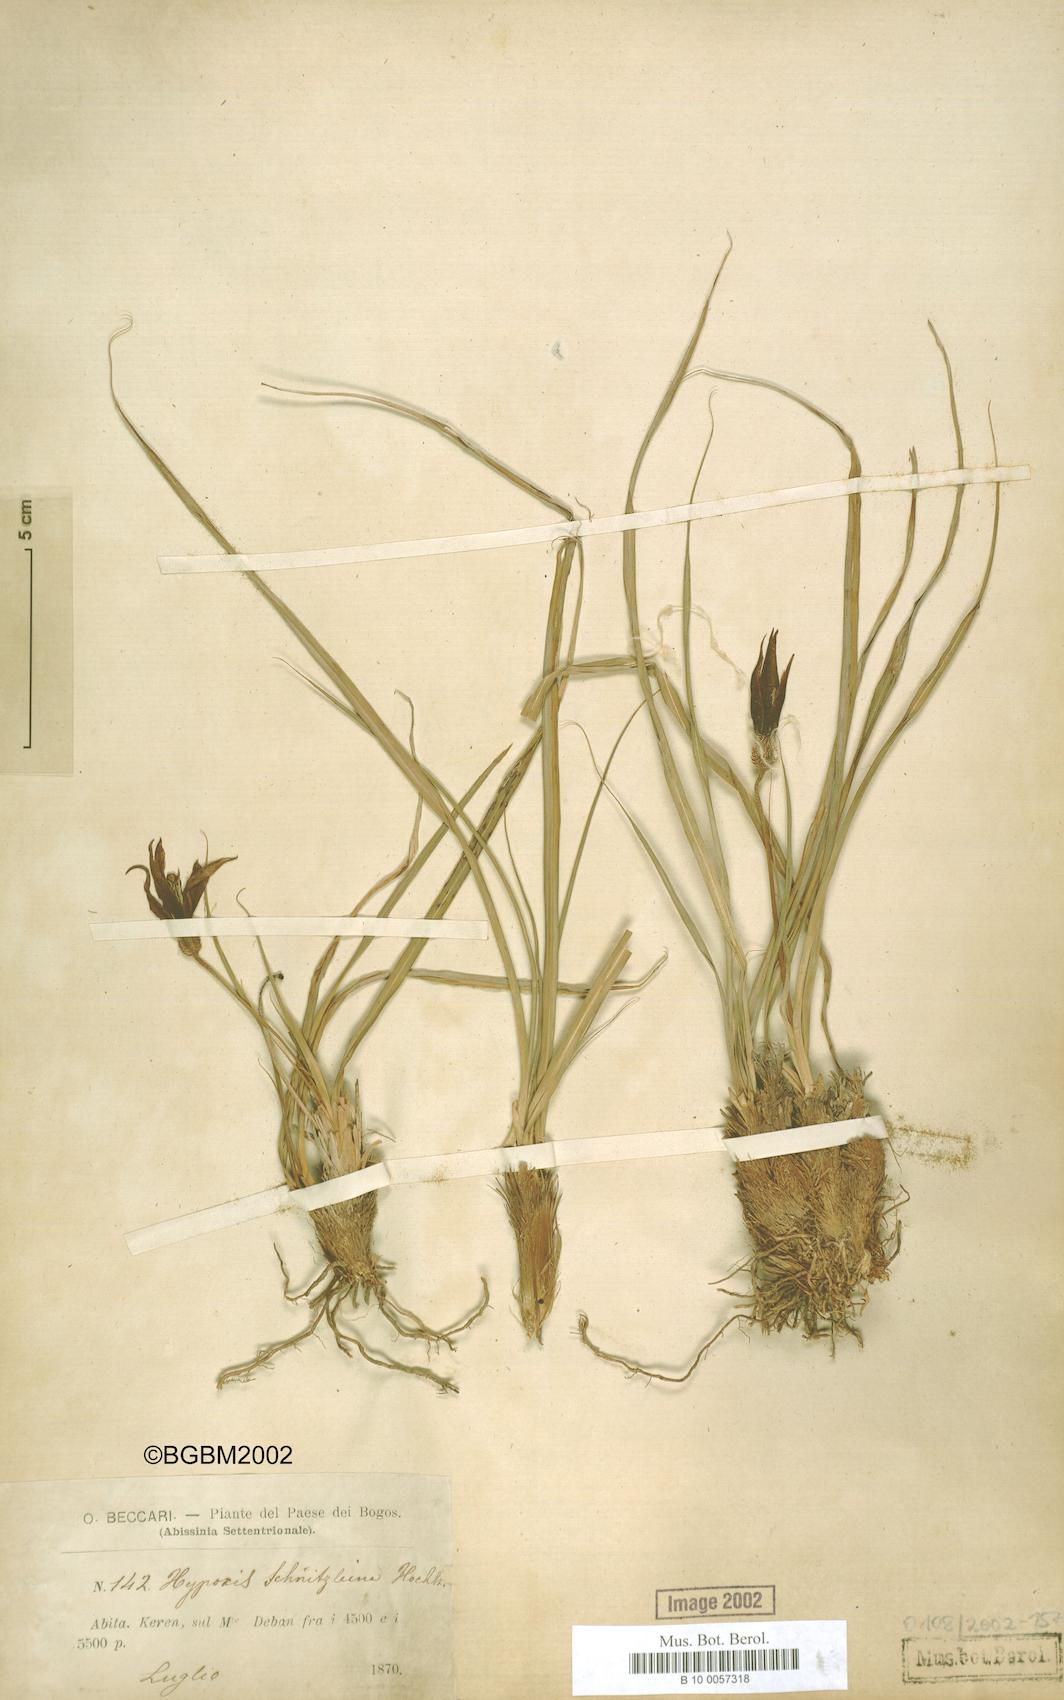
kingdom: Plantae
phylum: Tracheophyta
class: Liliopsida
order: Pandanales
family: Velloziaceae
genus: Xerophyta
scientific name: Xerophyta schnizleinia
